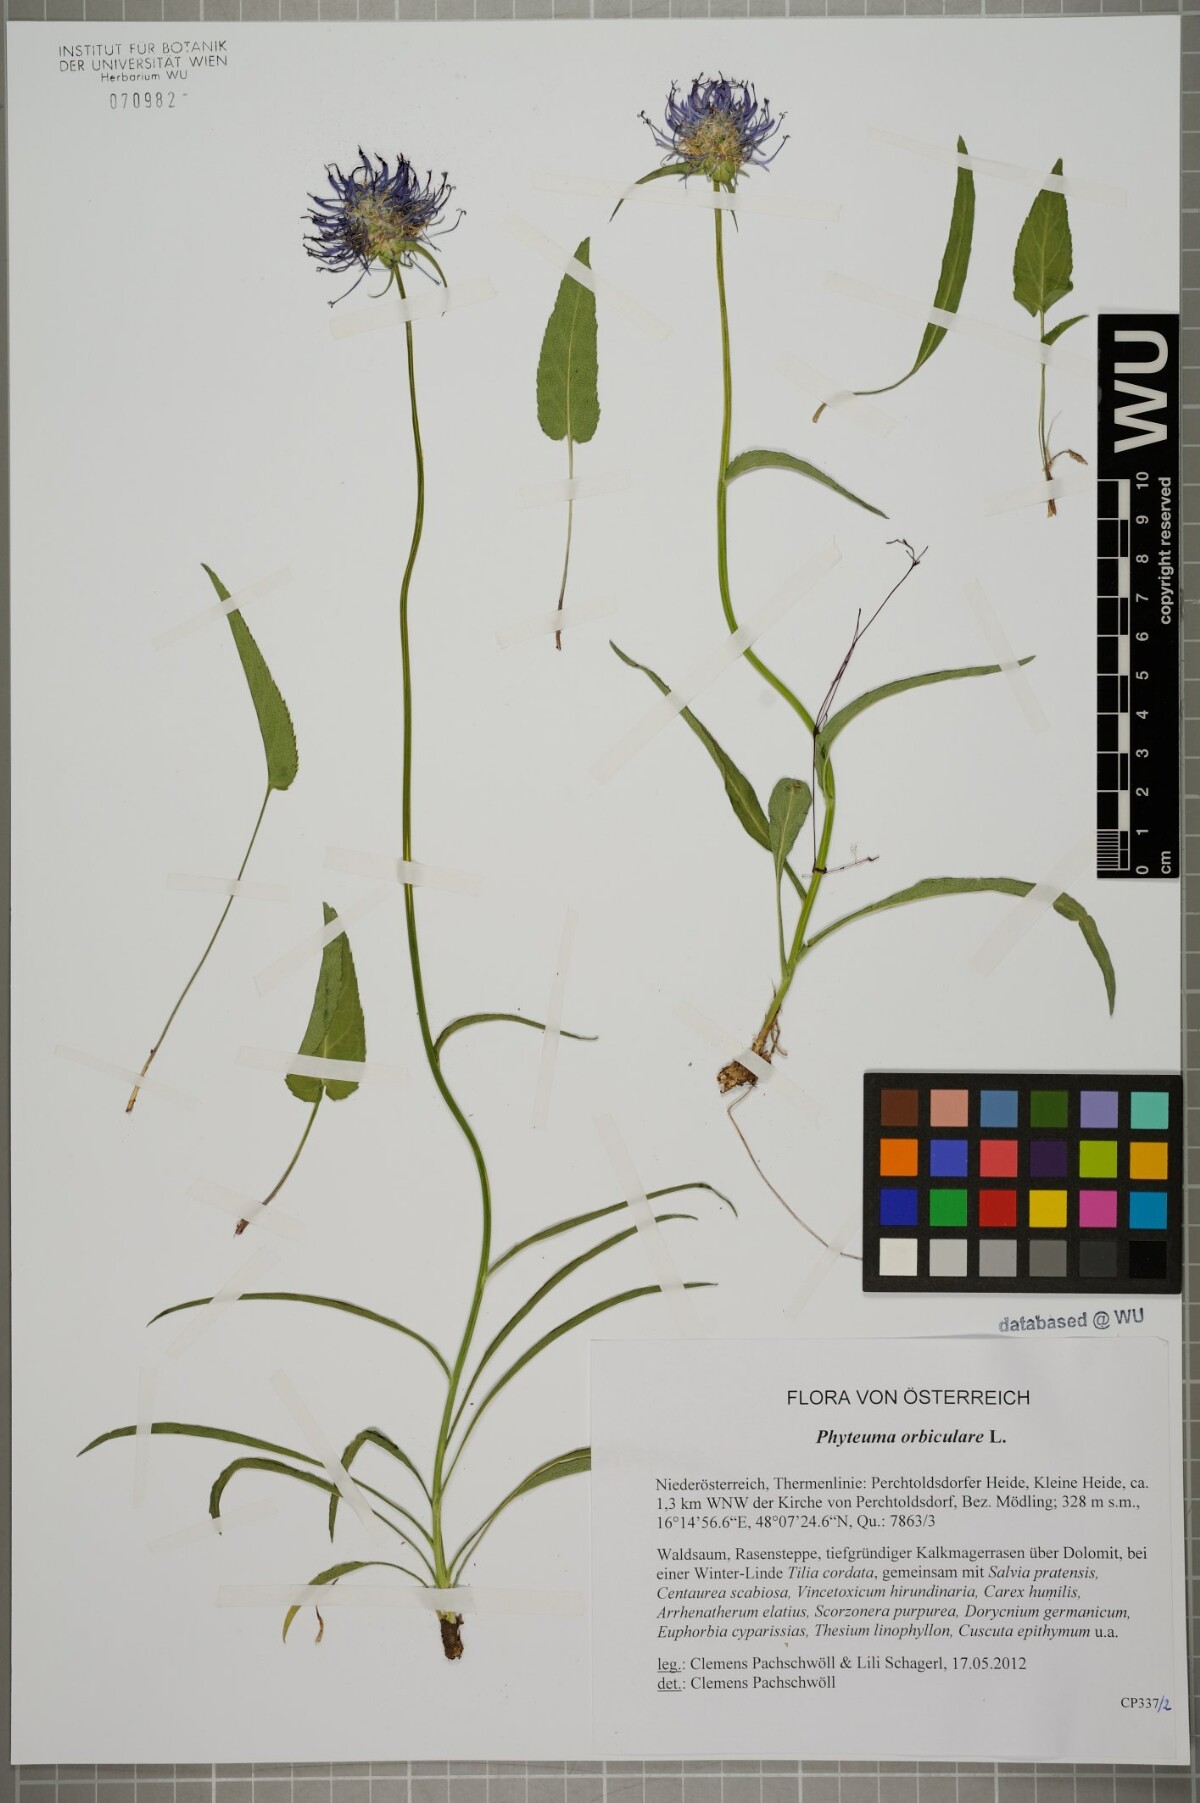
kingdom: Plantae
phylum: Tracheophyta
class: Magnoliopsida
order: Asterales
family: Campanulaceae
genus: Phyteuma
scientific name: Phyteuma orbiculare
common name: Round-headed rampion
